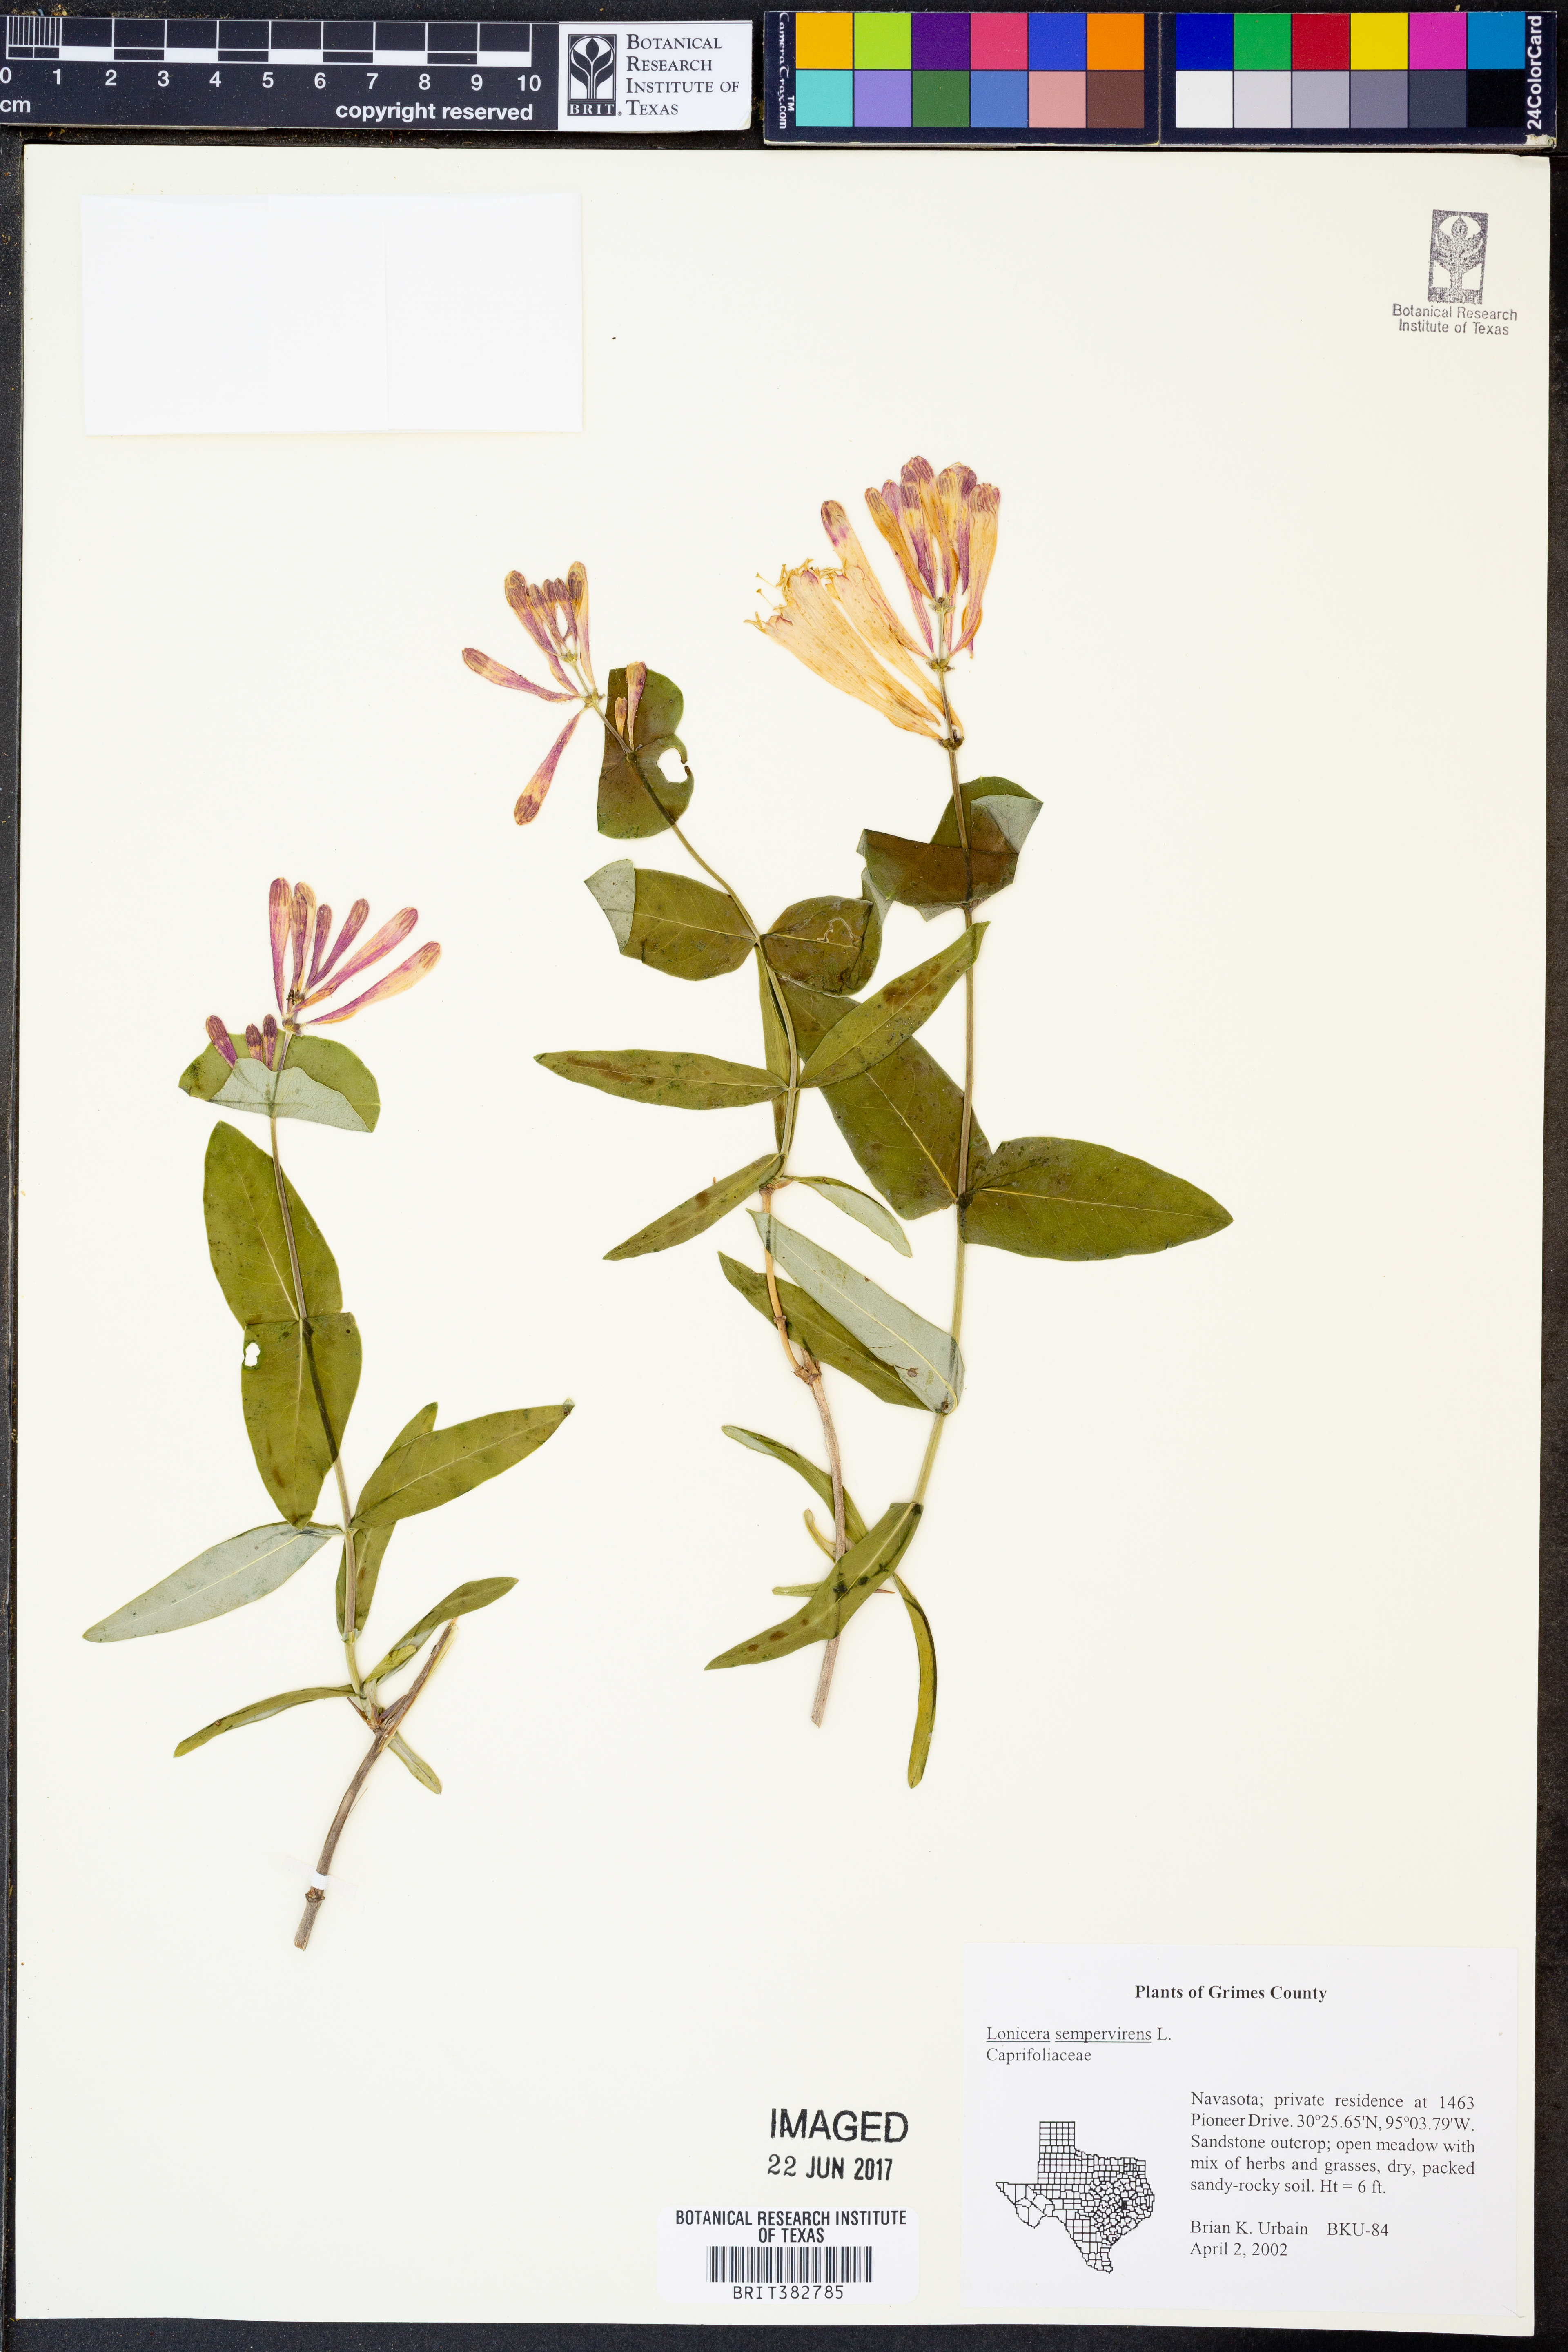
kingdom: Plantae
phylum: Tracheophyta
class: Magnoliopsida
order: Dipsacales
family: Caprifoliaceae
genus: Lonicera
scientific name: Lonicera sempervirens
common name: Coral honeysuckle
